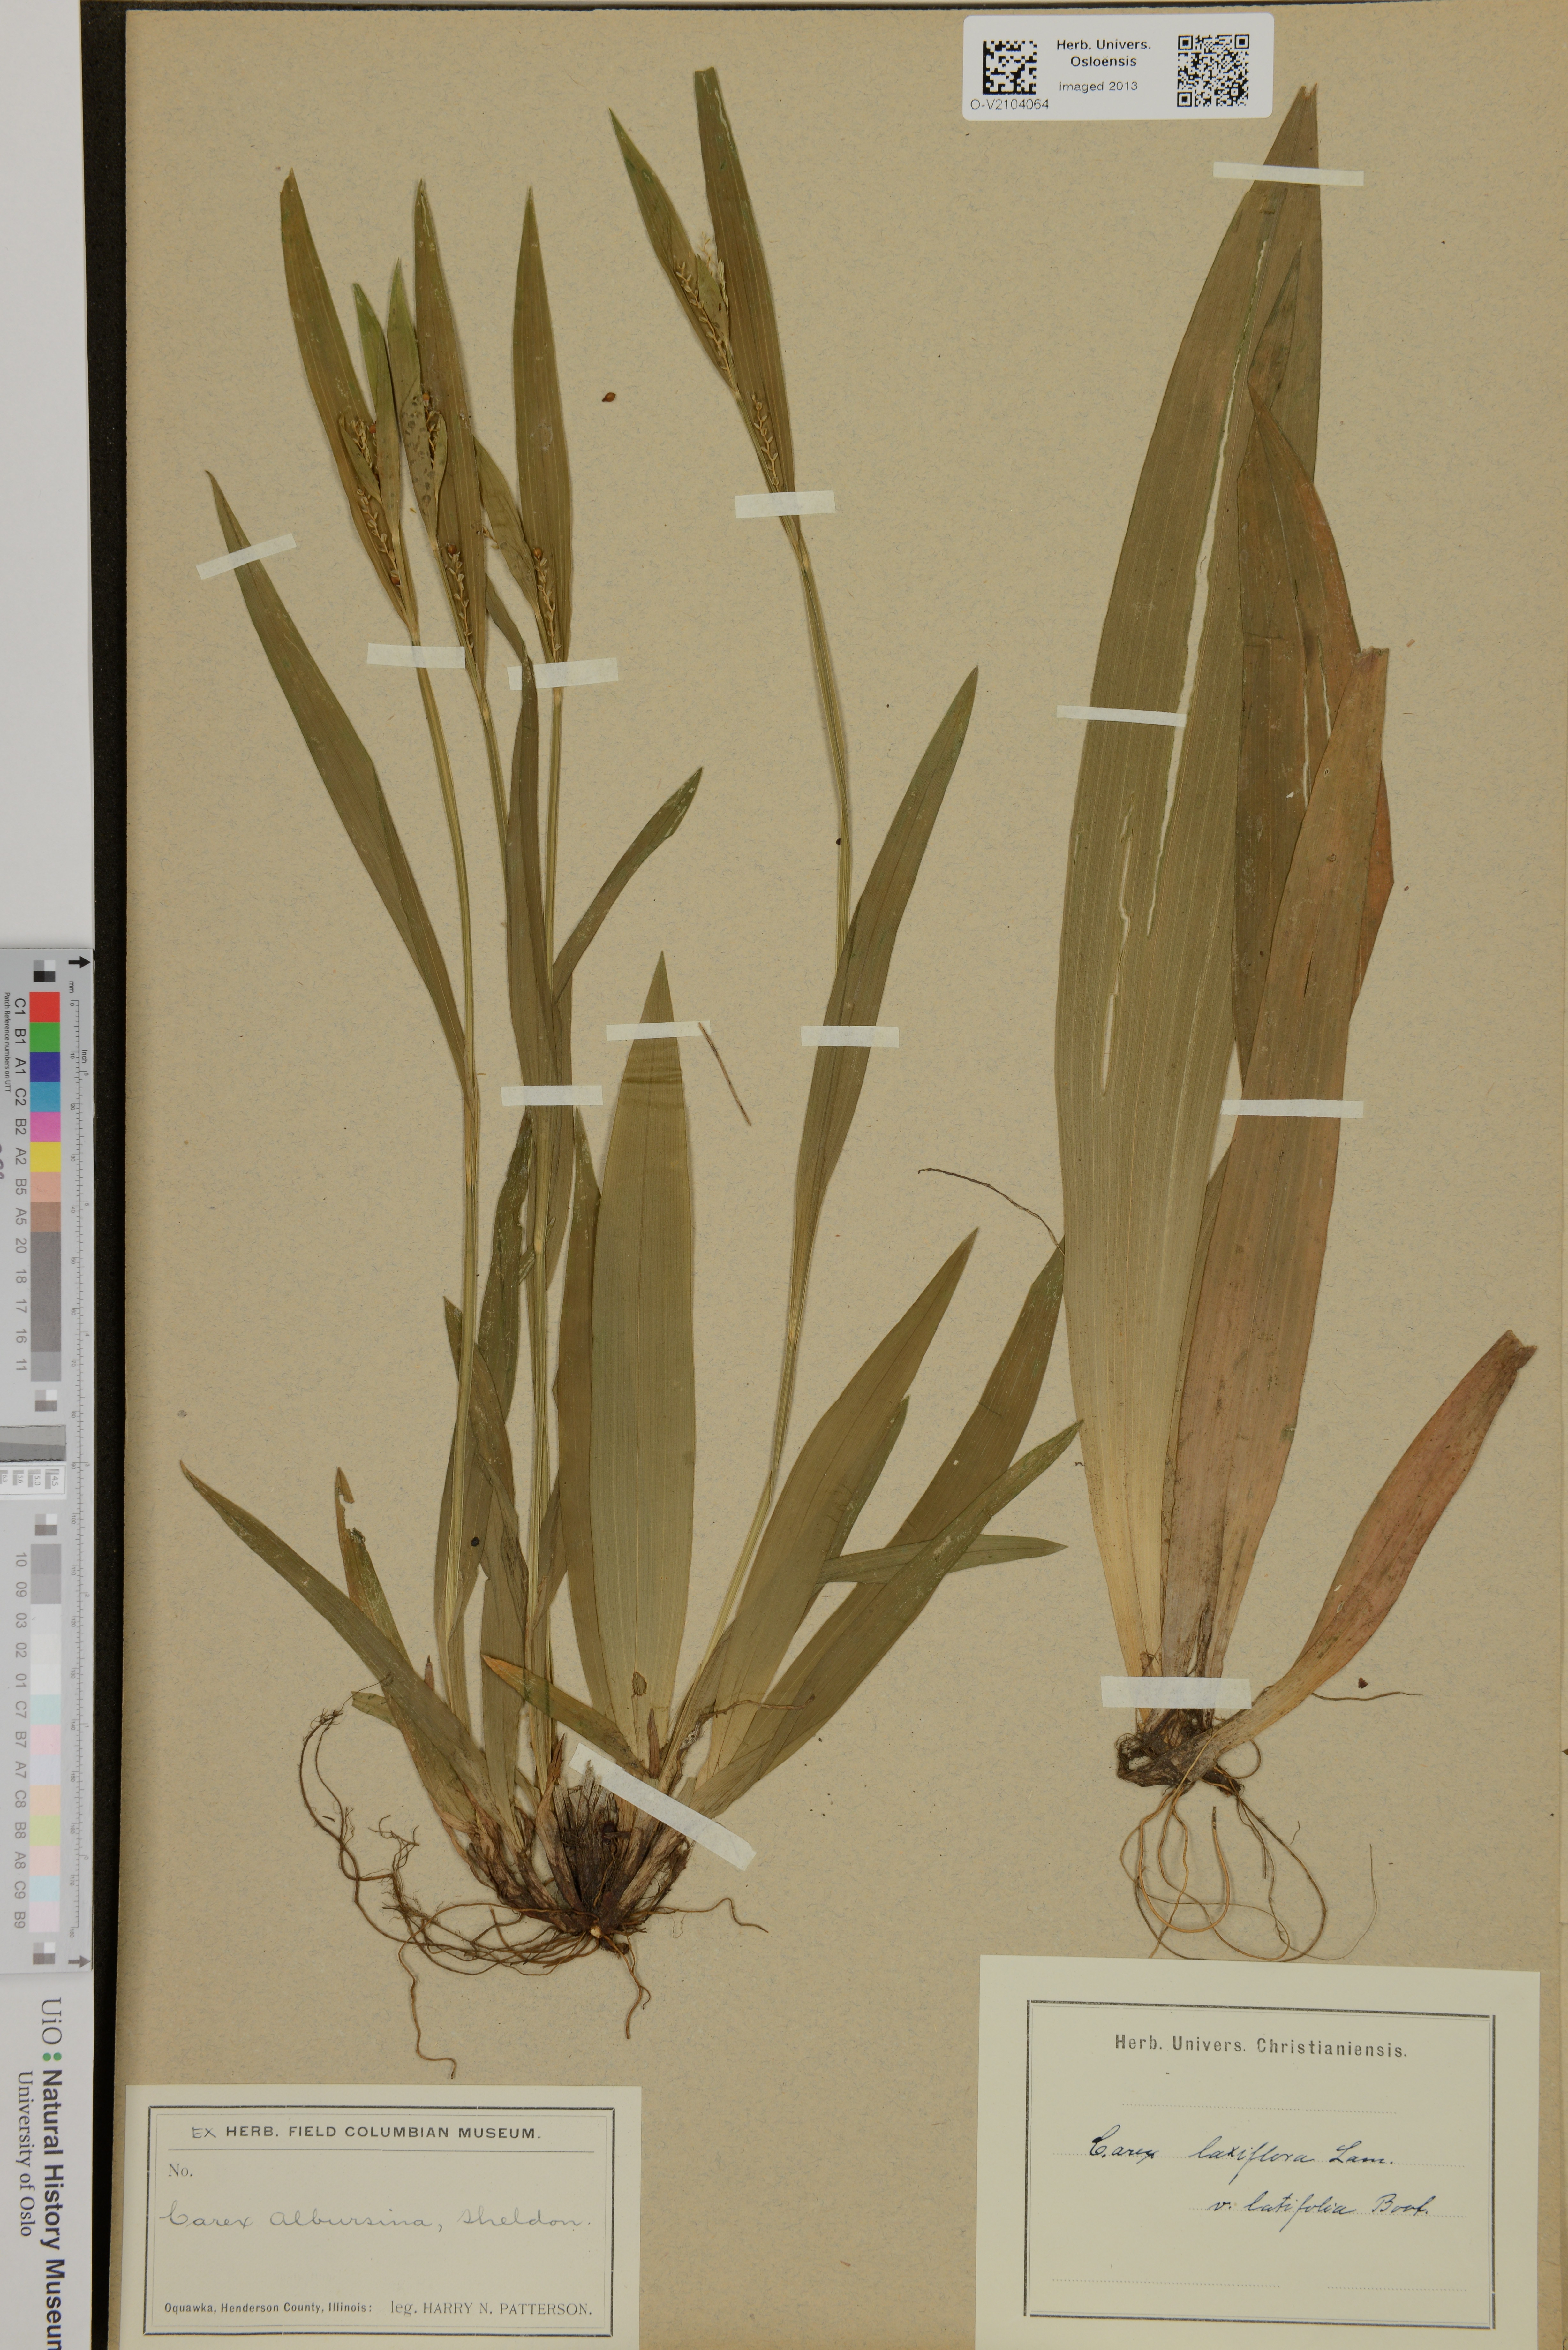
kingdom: Plantae
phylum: Tracheophyta
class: Liliopsida
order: Poales
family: Cyperaceae
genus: Carex
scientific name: Carex laxiflora
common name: Beech wood sedge
